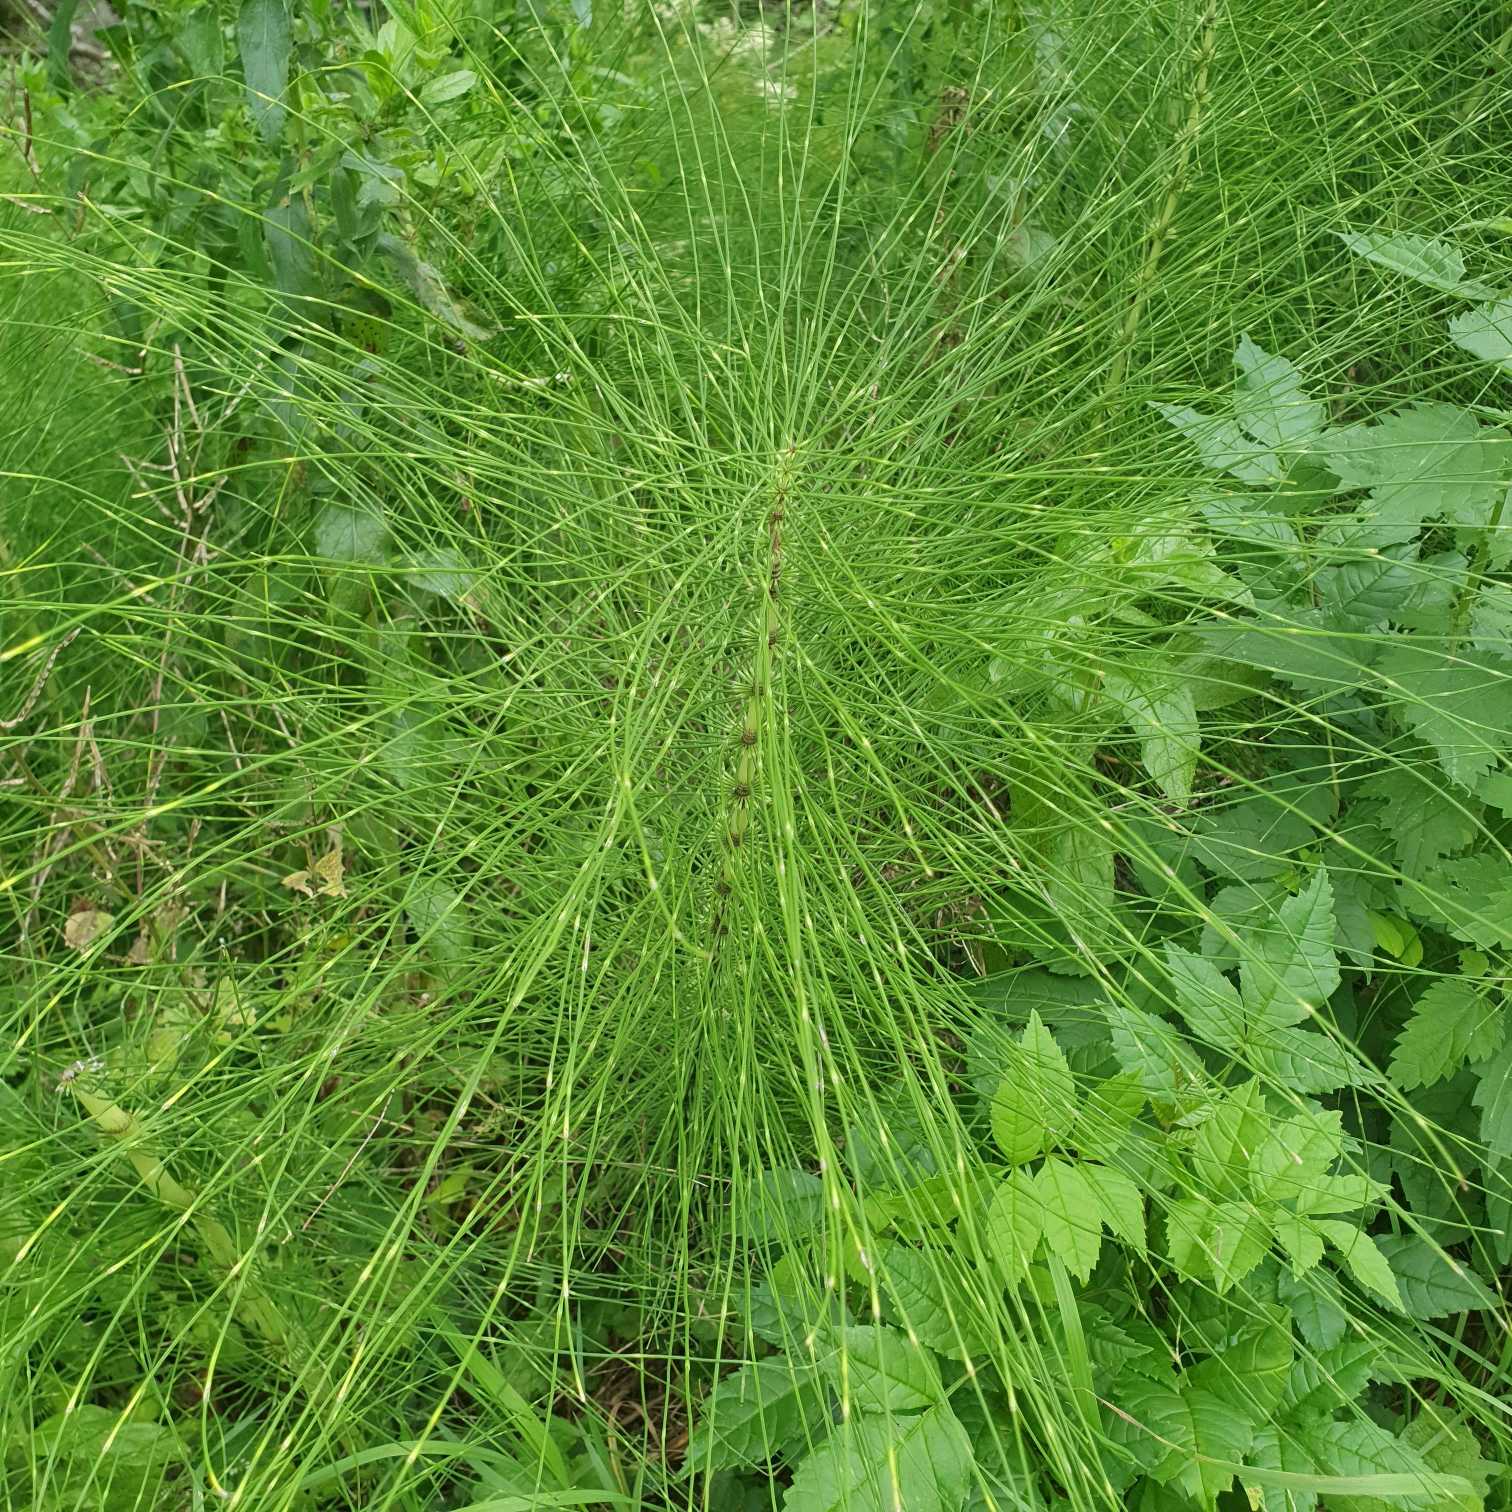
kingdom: Plantae
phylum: Tracheophyta
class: Polypodiopsida
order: Equisetales
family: Equisetaceae
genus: Equisetum
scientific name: Equisetum telmateia
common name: Elfenbens-padderok
